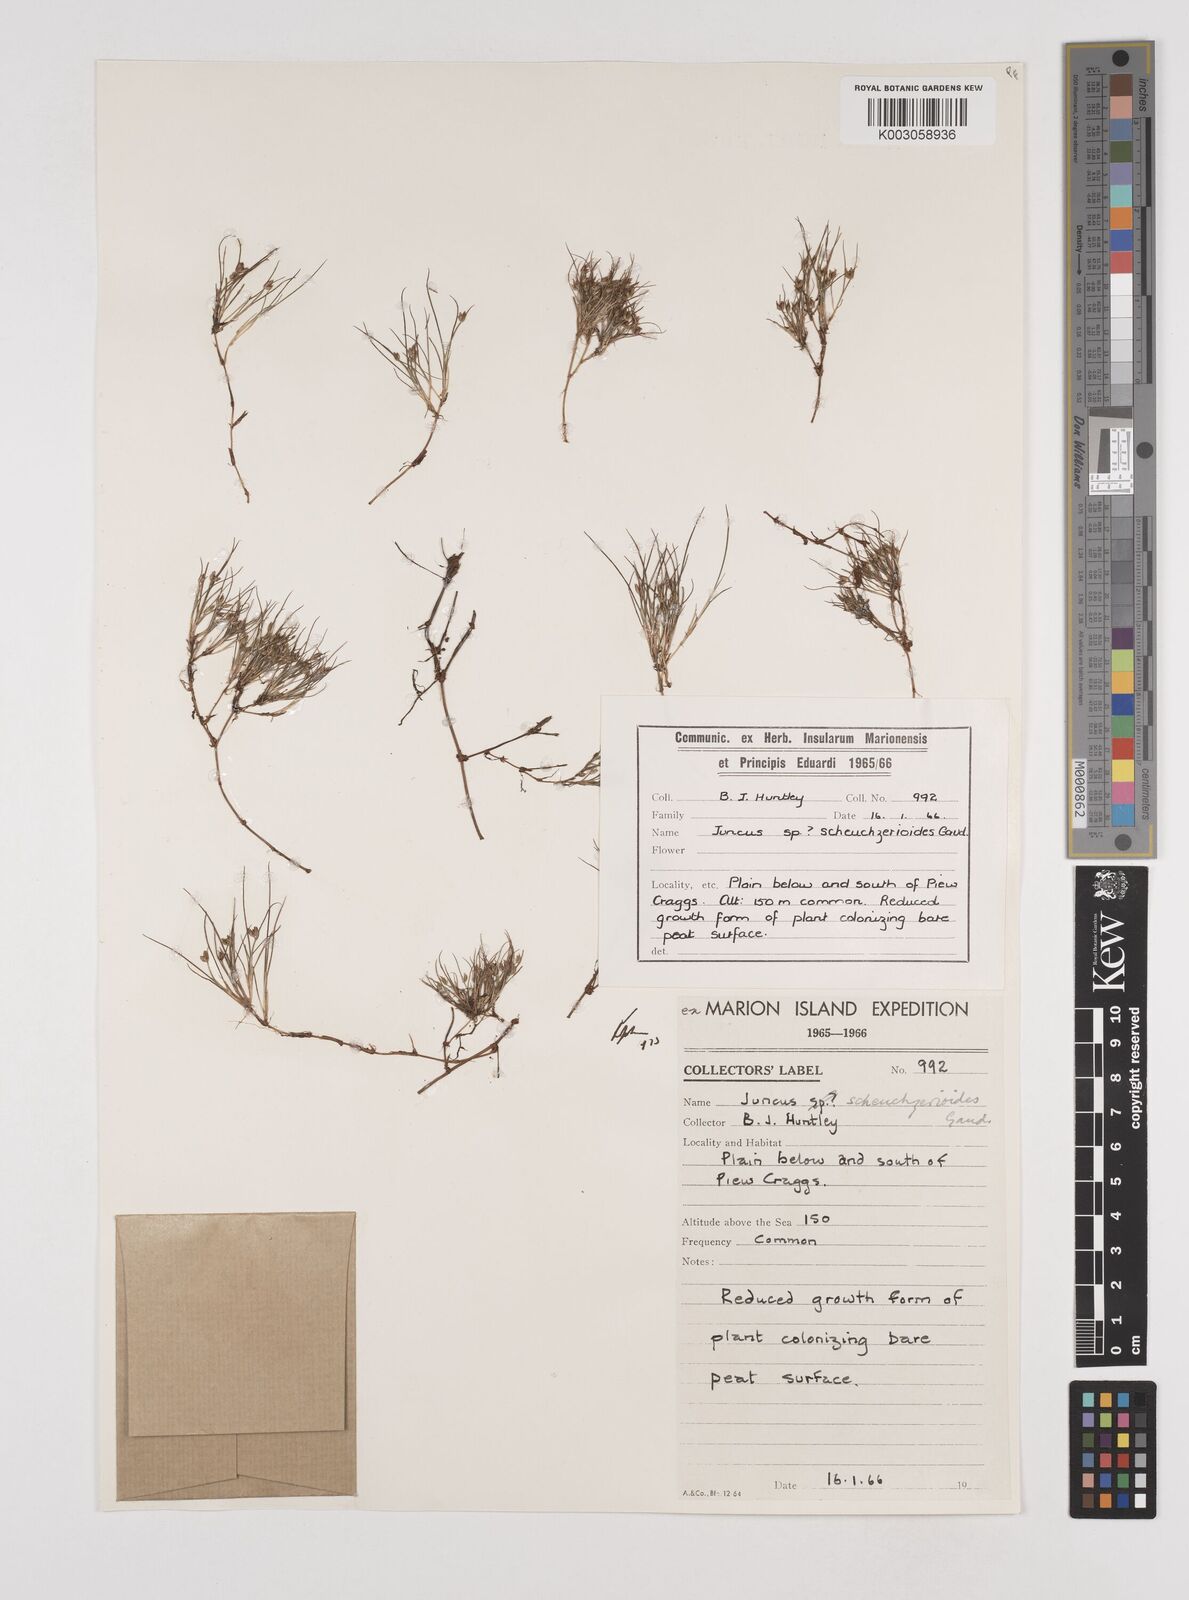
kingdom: Plantae
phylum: Tracheophyta
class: Liliopsida
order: Poales
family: Juncaceae
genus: Juncus
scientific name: Juncus scheuchzerioides
